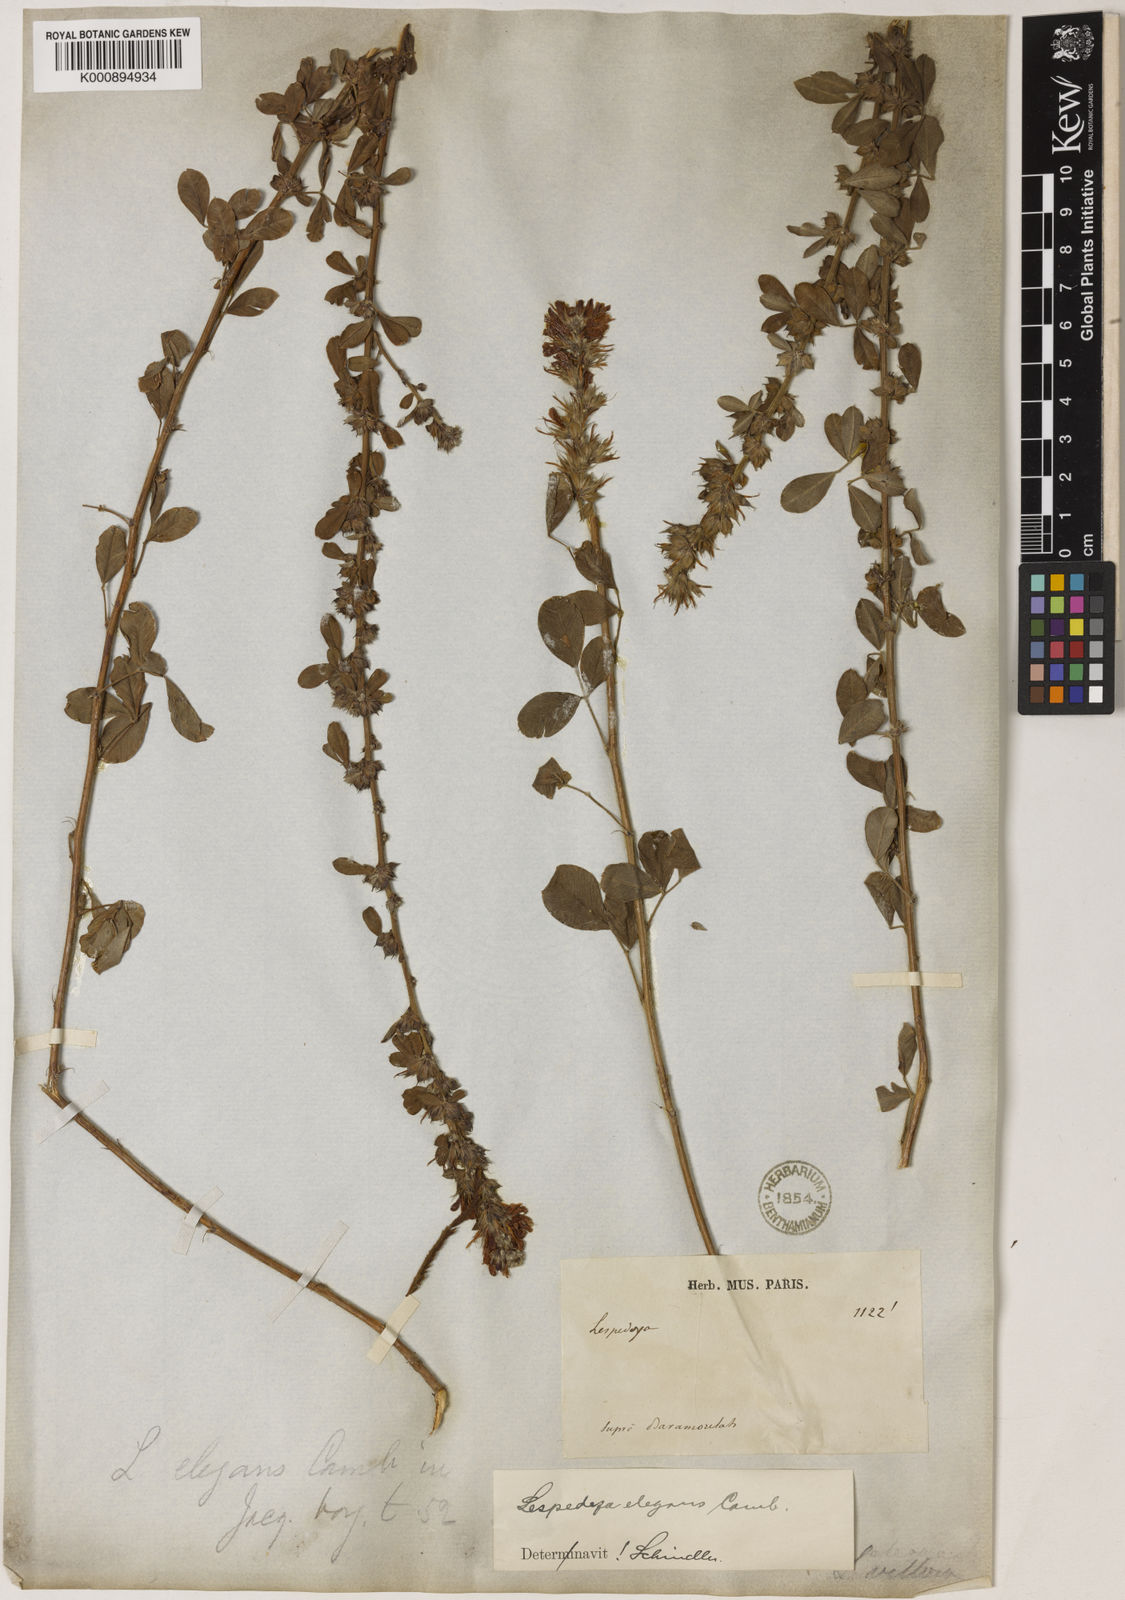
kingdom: Plantae
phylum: Tracheophyta
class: Magnoliopsida
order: Fabales
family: Fabaceae
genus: Lespedeza
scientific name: Lespedeza elegans
